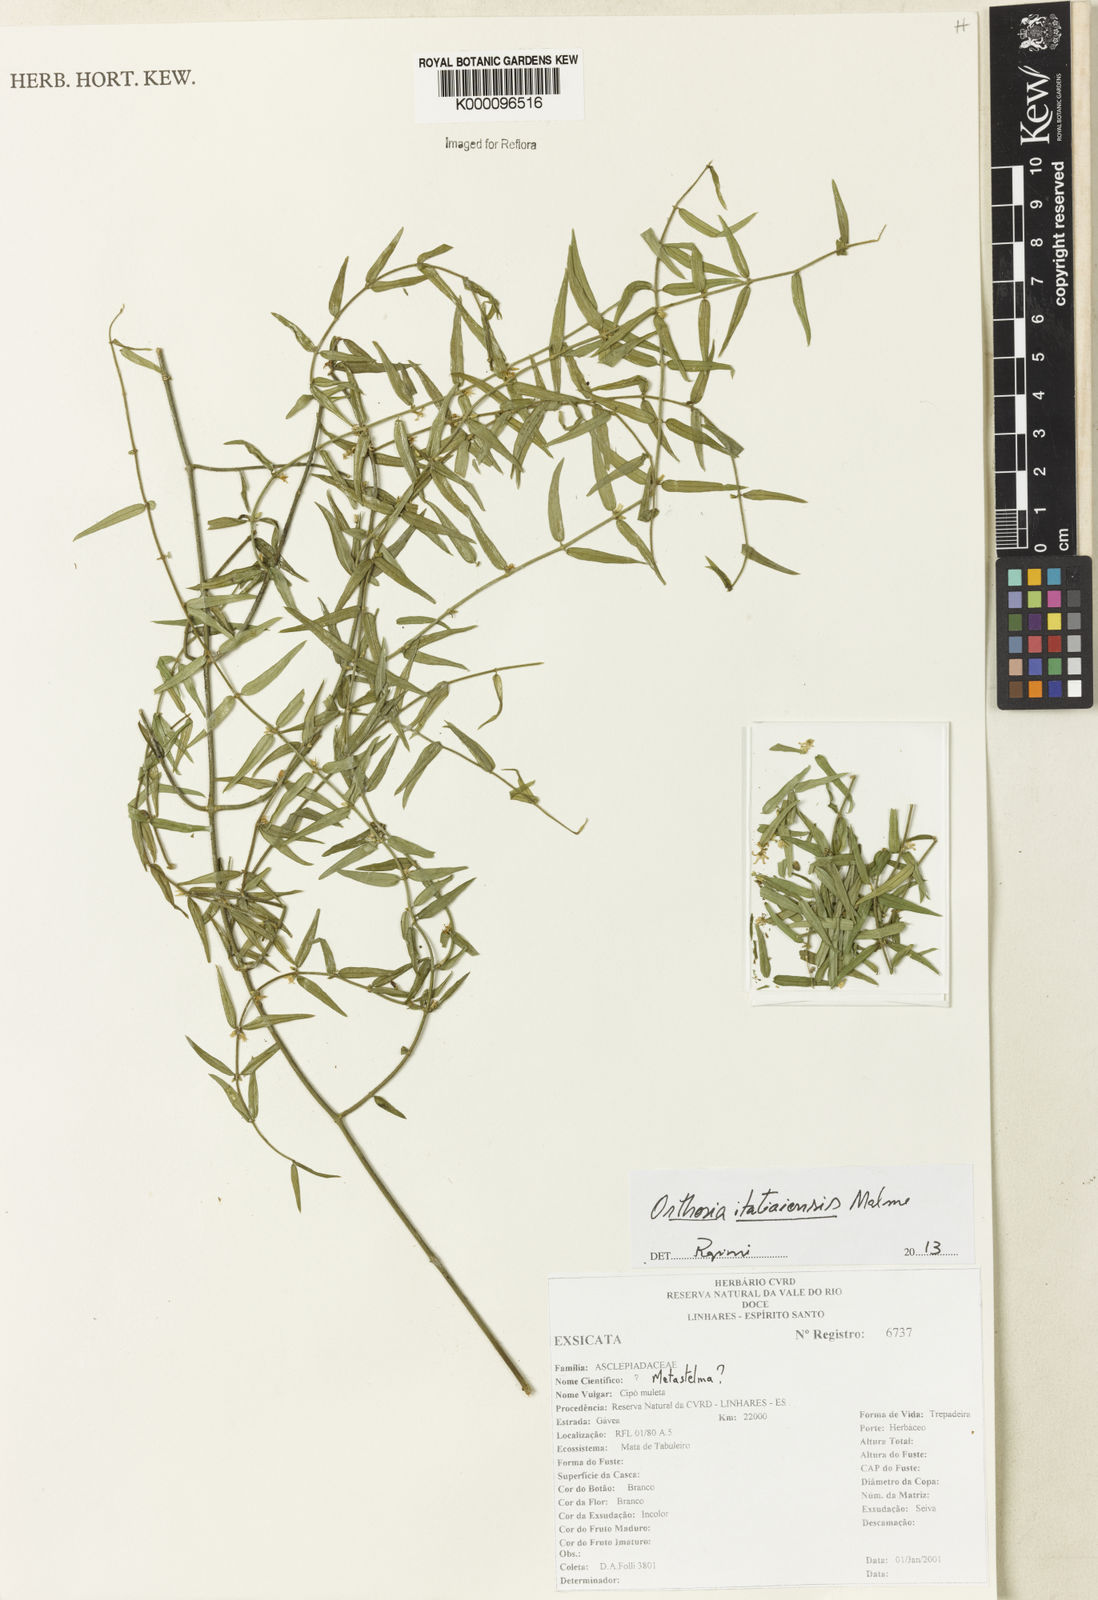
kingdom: Plantae
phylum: Tracheophyta
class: Magnoliopsida
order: Gentianales
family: Apocynaceae
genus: Orthosia
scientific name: Orthosia itatiaiensis
